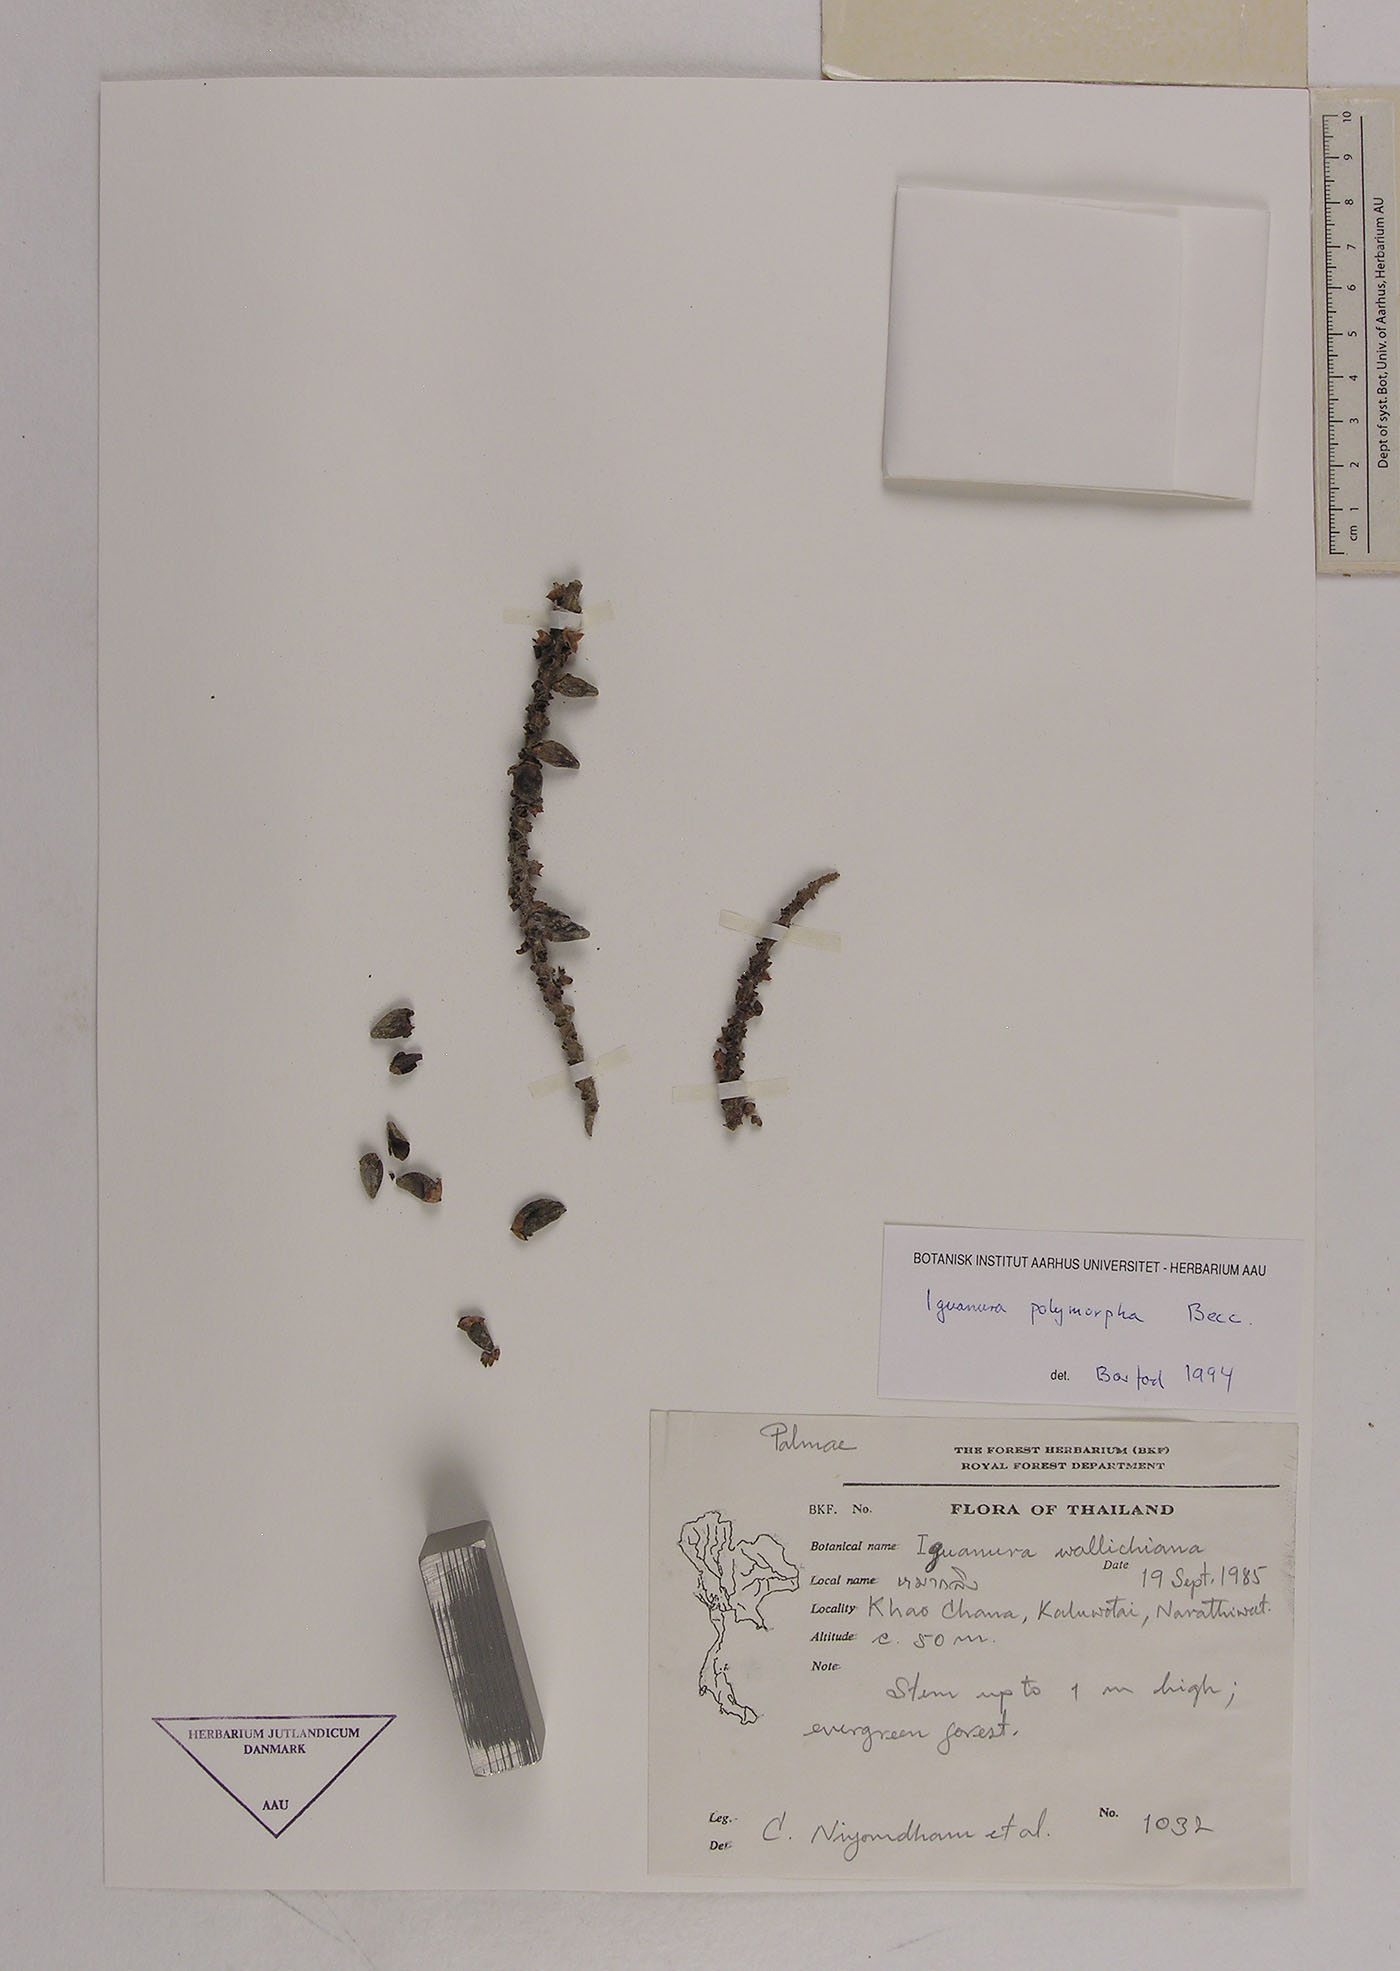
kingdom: Plantae
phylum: Tracheophyta
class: Liliopsida
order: Arecales
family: Arecaceae
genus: Iguanura
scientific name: Iguanura polymorpha
